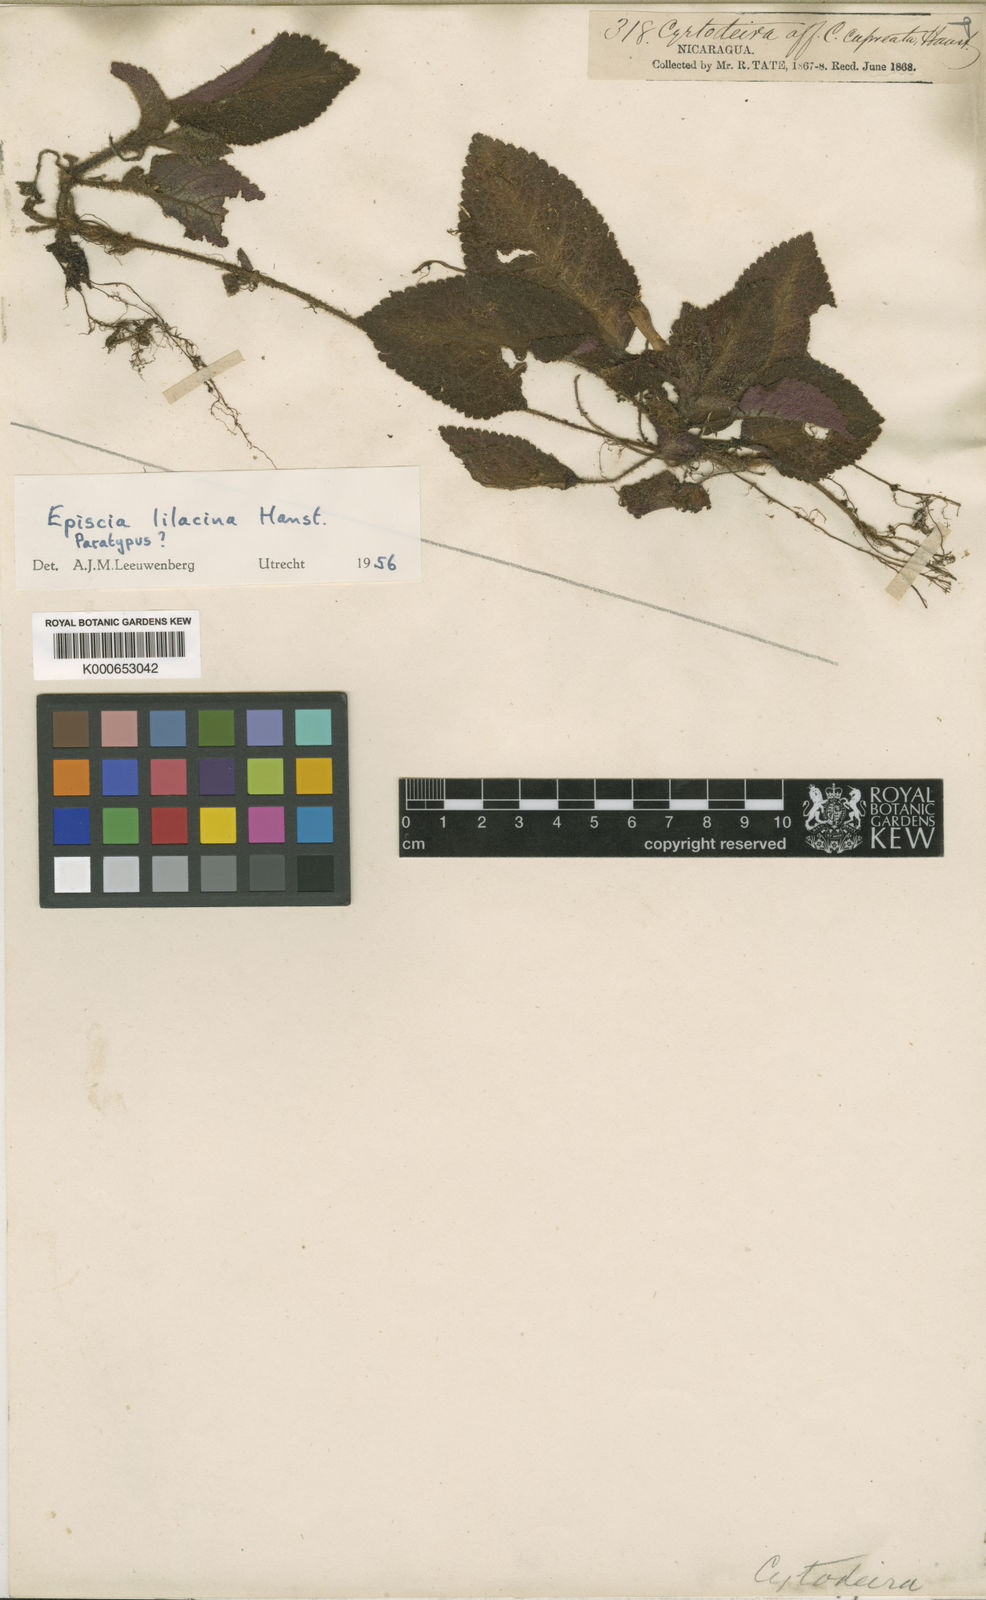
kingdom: Plantae
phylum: Tracheophyta
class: Magnoliopsida
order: Lamiales
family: Gesneriaceae
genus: Episcia
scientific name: Episcia lilacina
